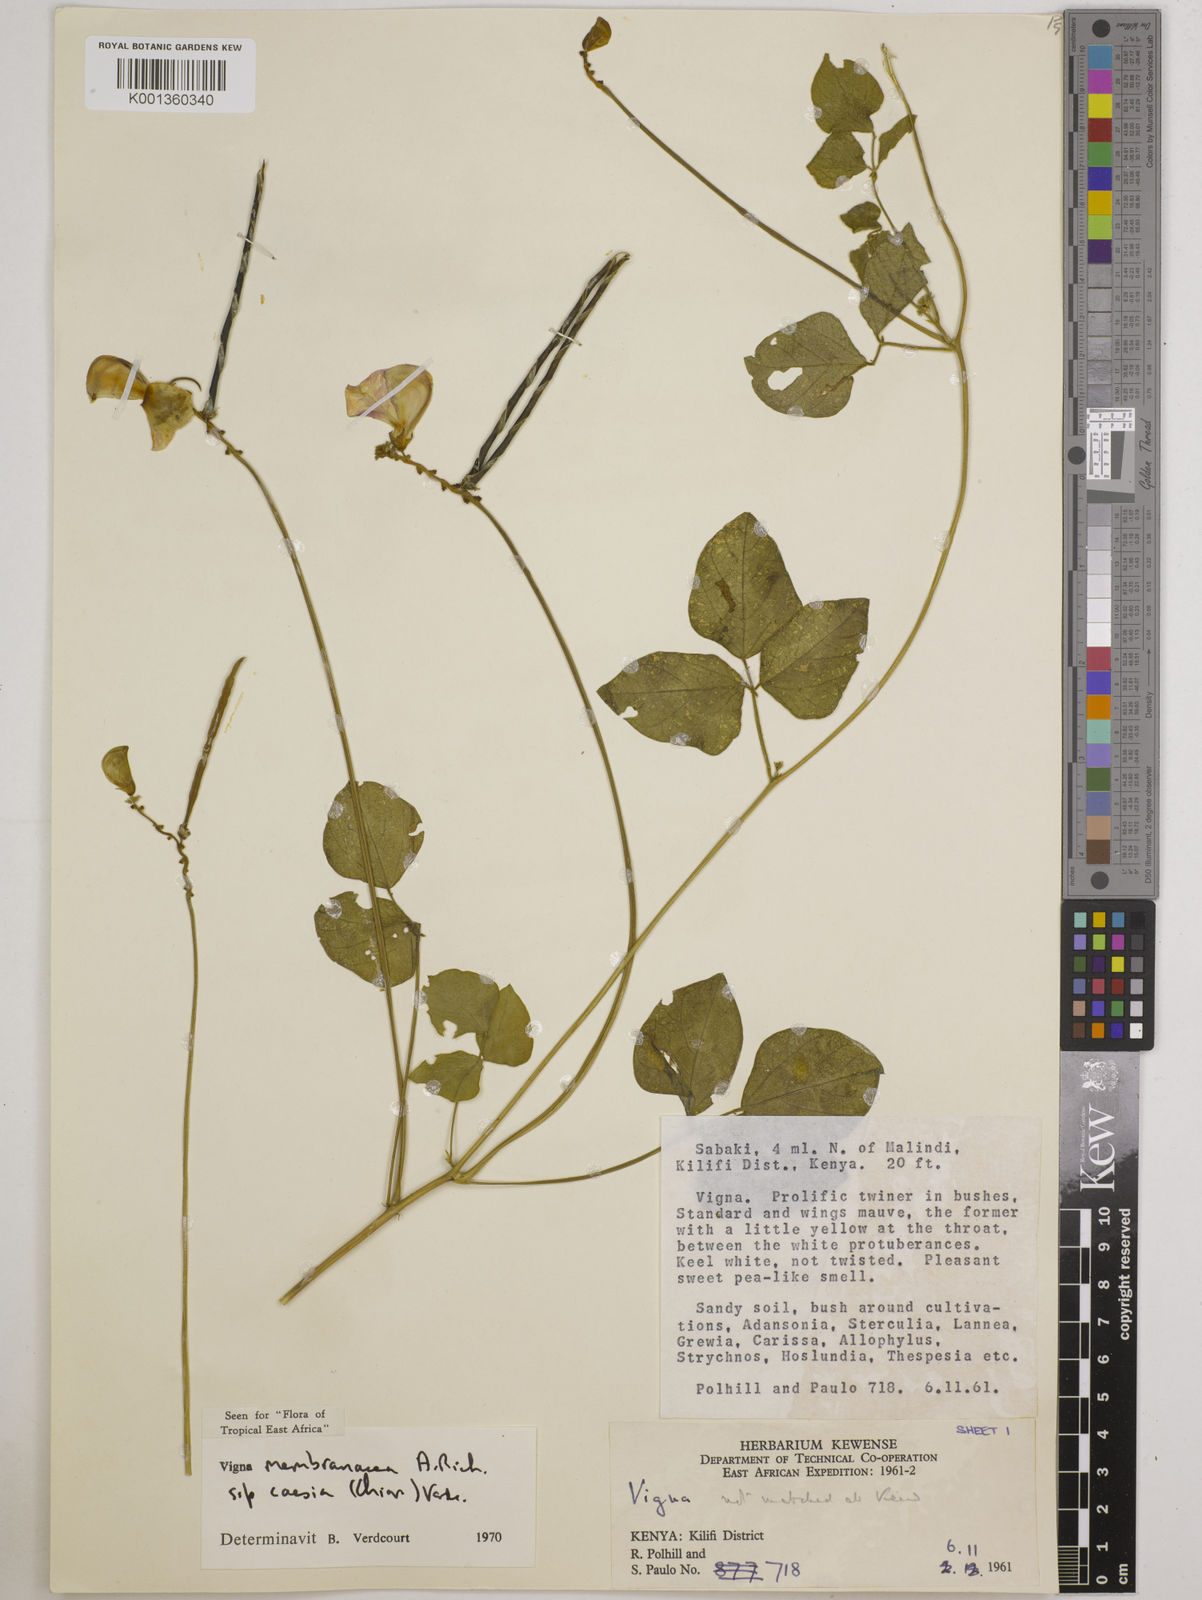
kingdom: Plantae
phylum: Tracheophyta
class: Magnoliopsida
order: Fabales
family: Fabaceae
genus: Vigna
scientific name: Vigna
